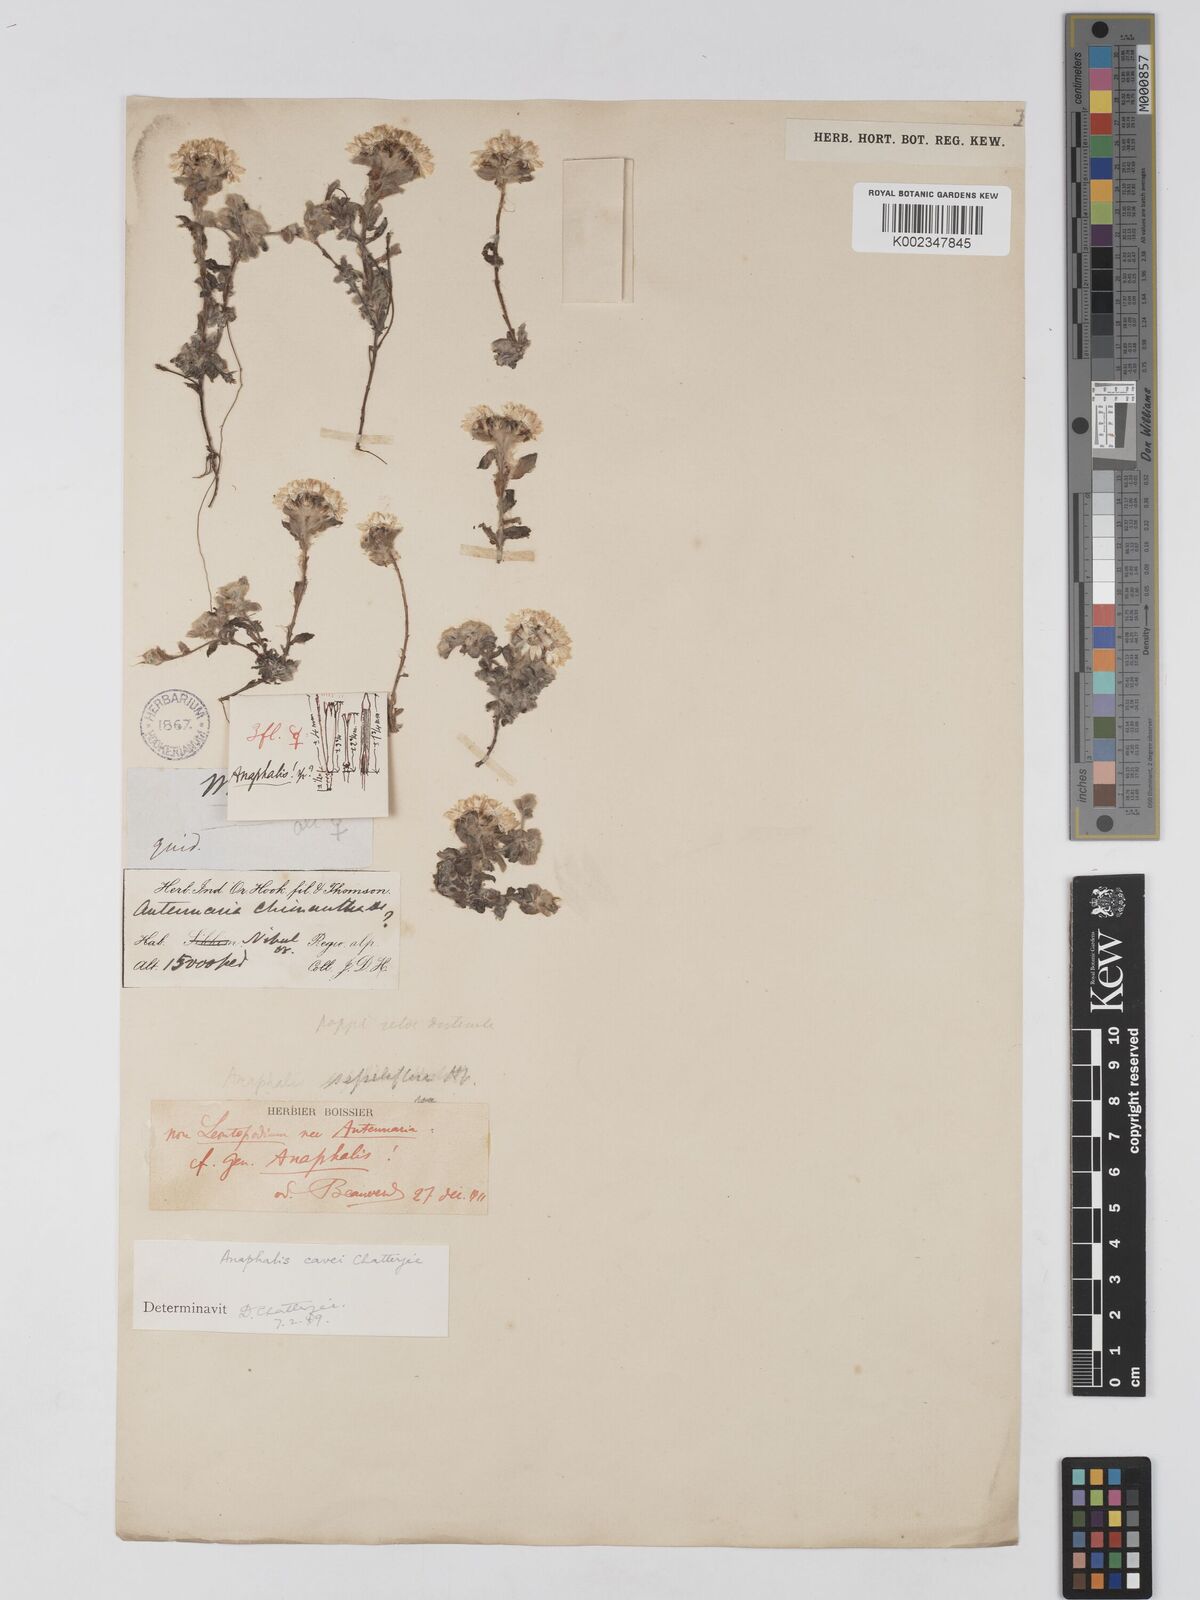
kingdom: Plantae
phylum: Tracheophyta
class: Magnoliopsida
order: Asterales
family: Asteraceae
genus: Anaphalis
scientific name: Anaphalis cavei
